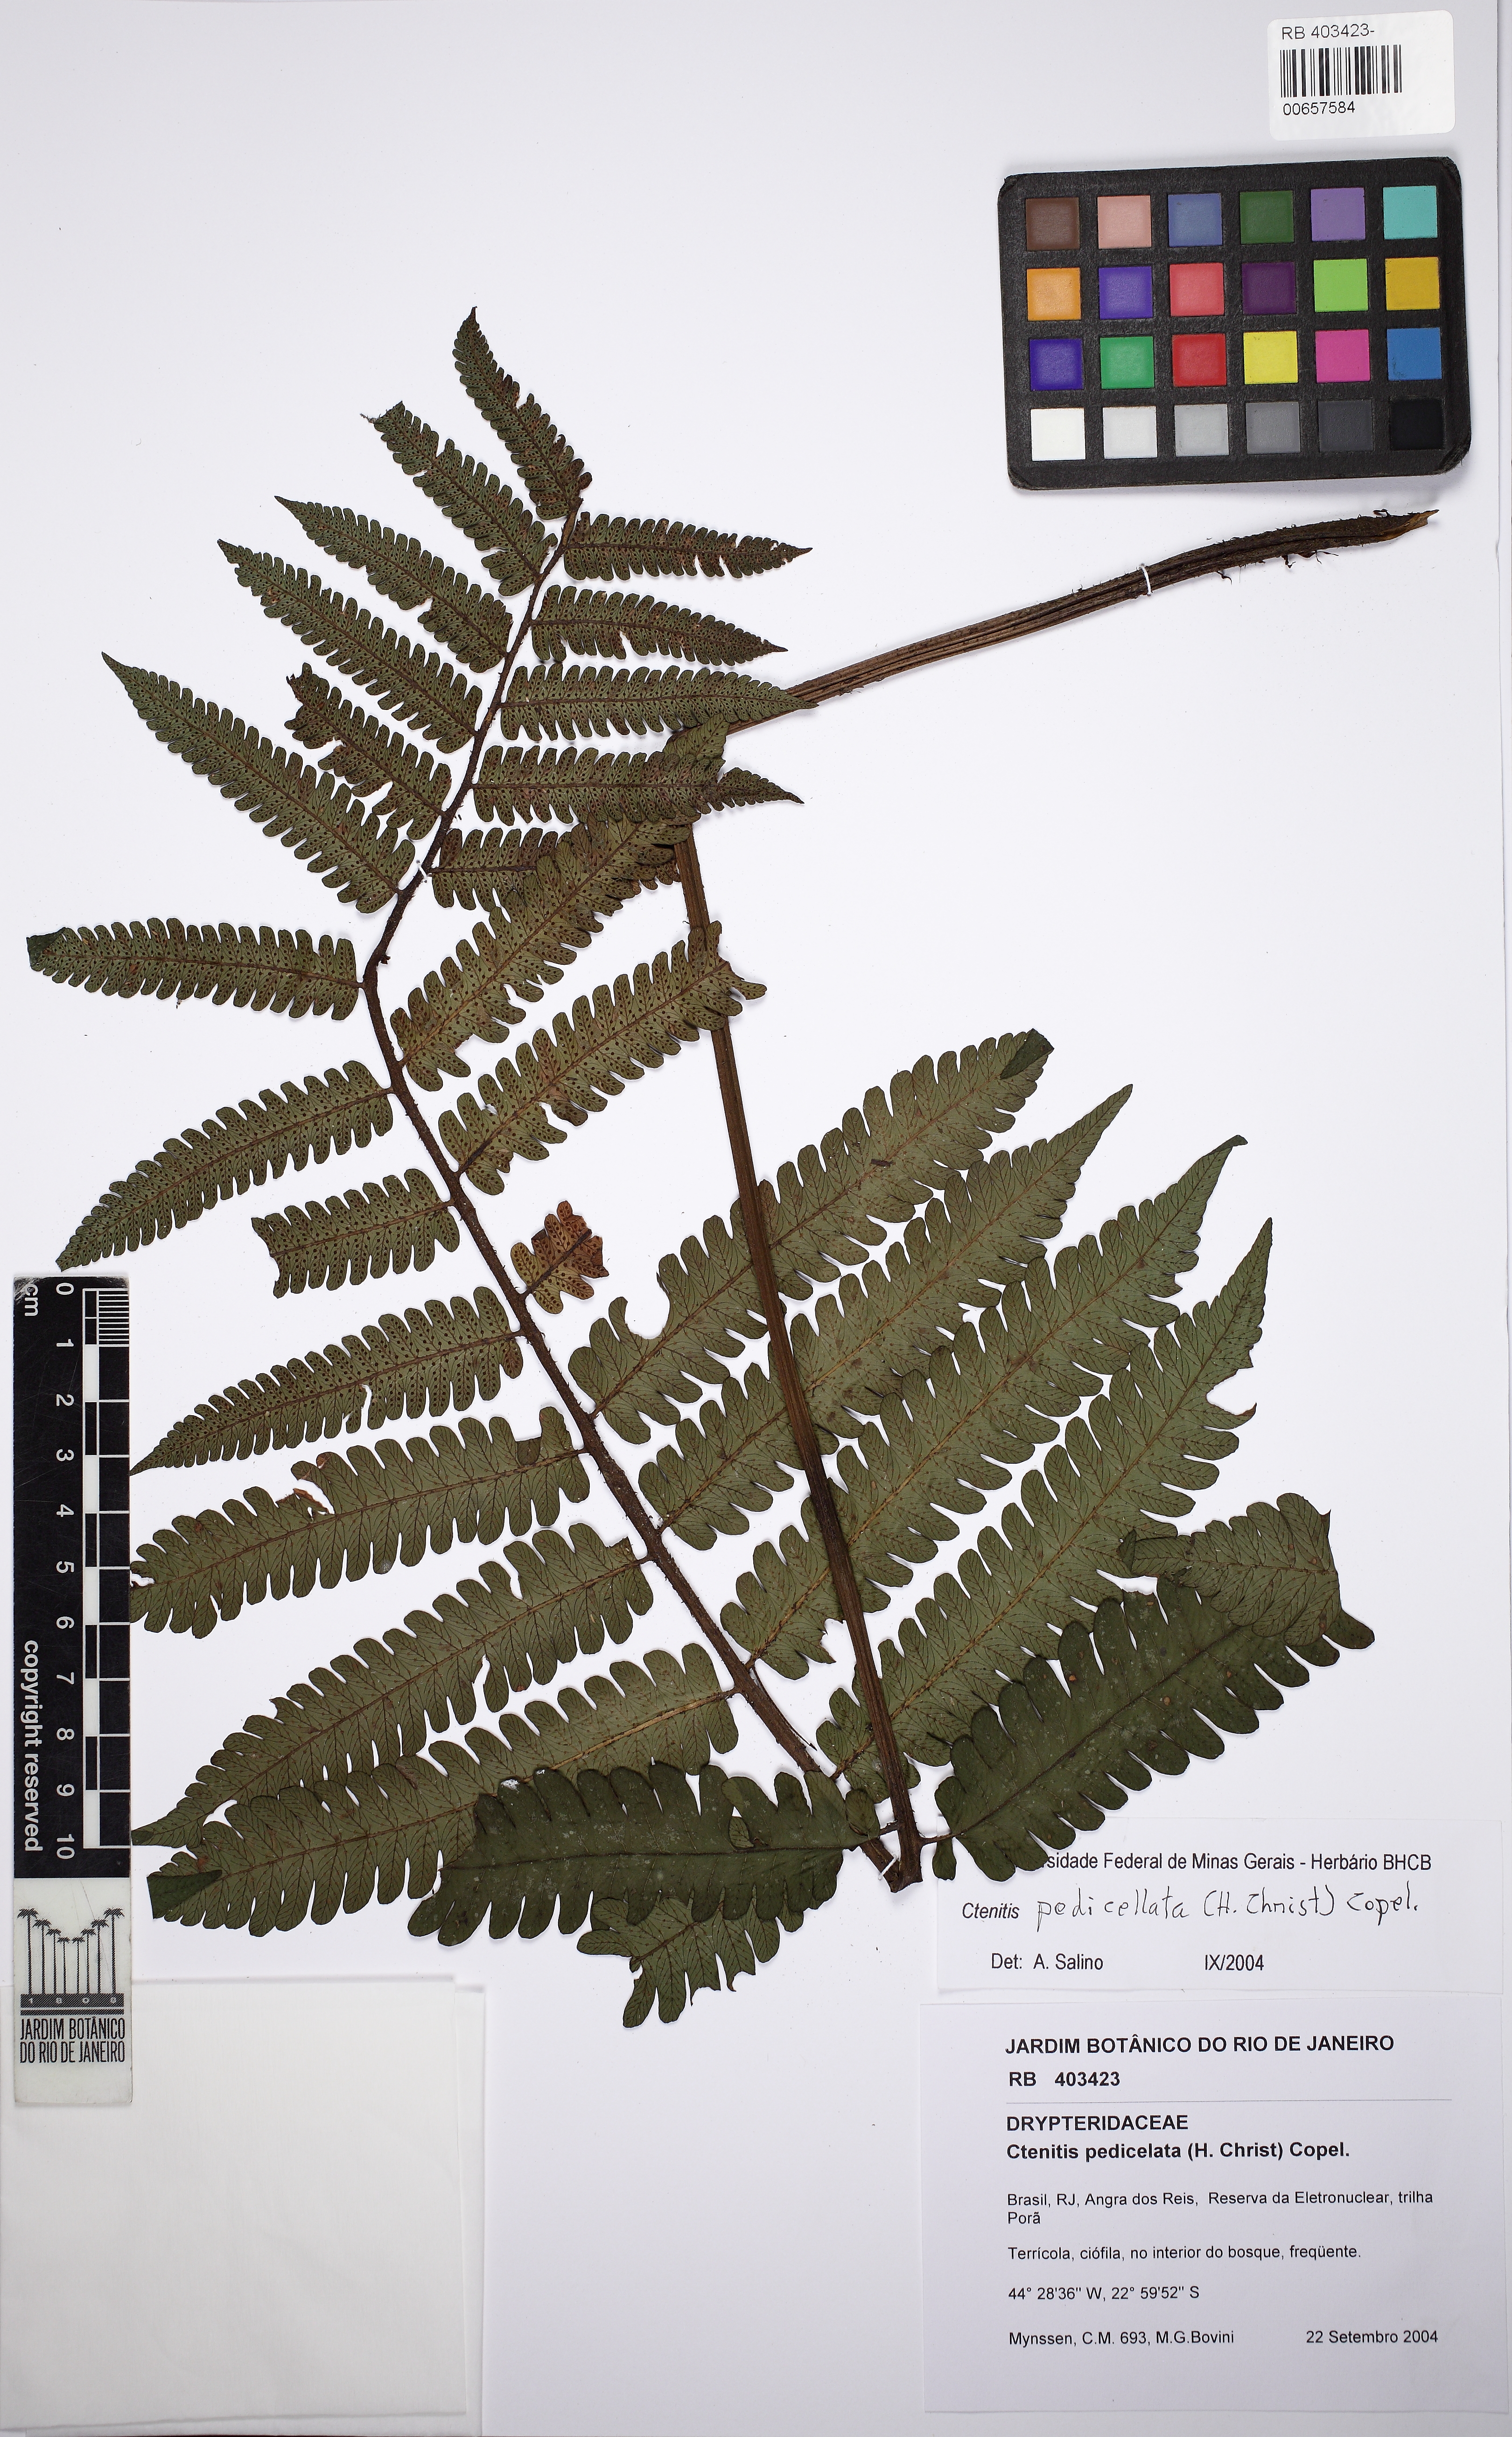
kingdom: Plantae
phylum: Tracheophyta
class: Polypodiopsida
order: Polypodiales
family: Dryopteridaceae
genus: Ctenitis
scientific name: Ctenitis nervata
